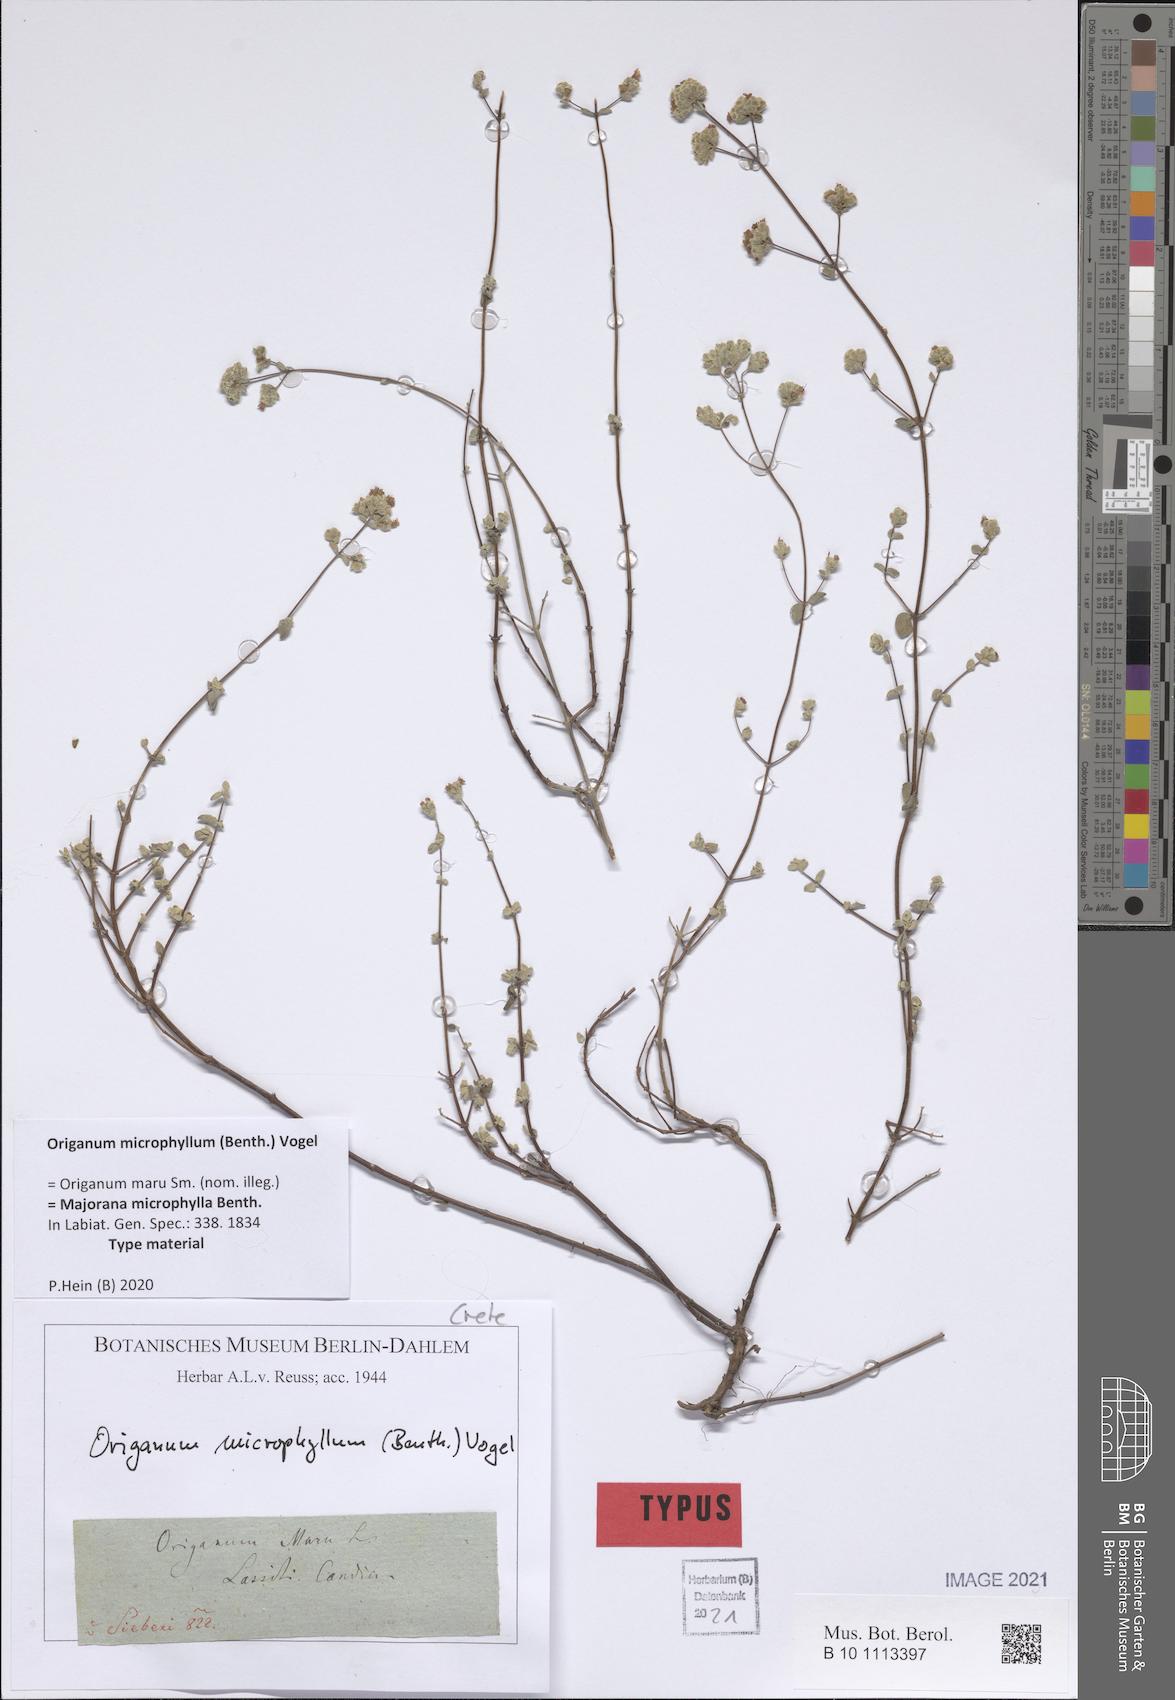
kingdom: Plantae
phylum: Tracheophyta
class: Magnoliopsida
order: Lamiales
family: Lamiaceae
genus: Origanum
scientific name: Origanum microphyllum
